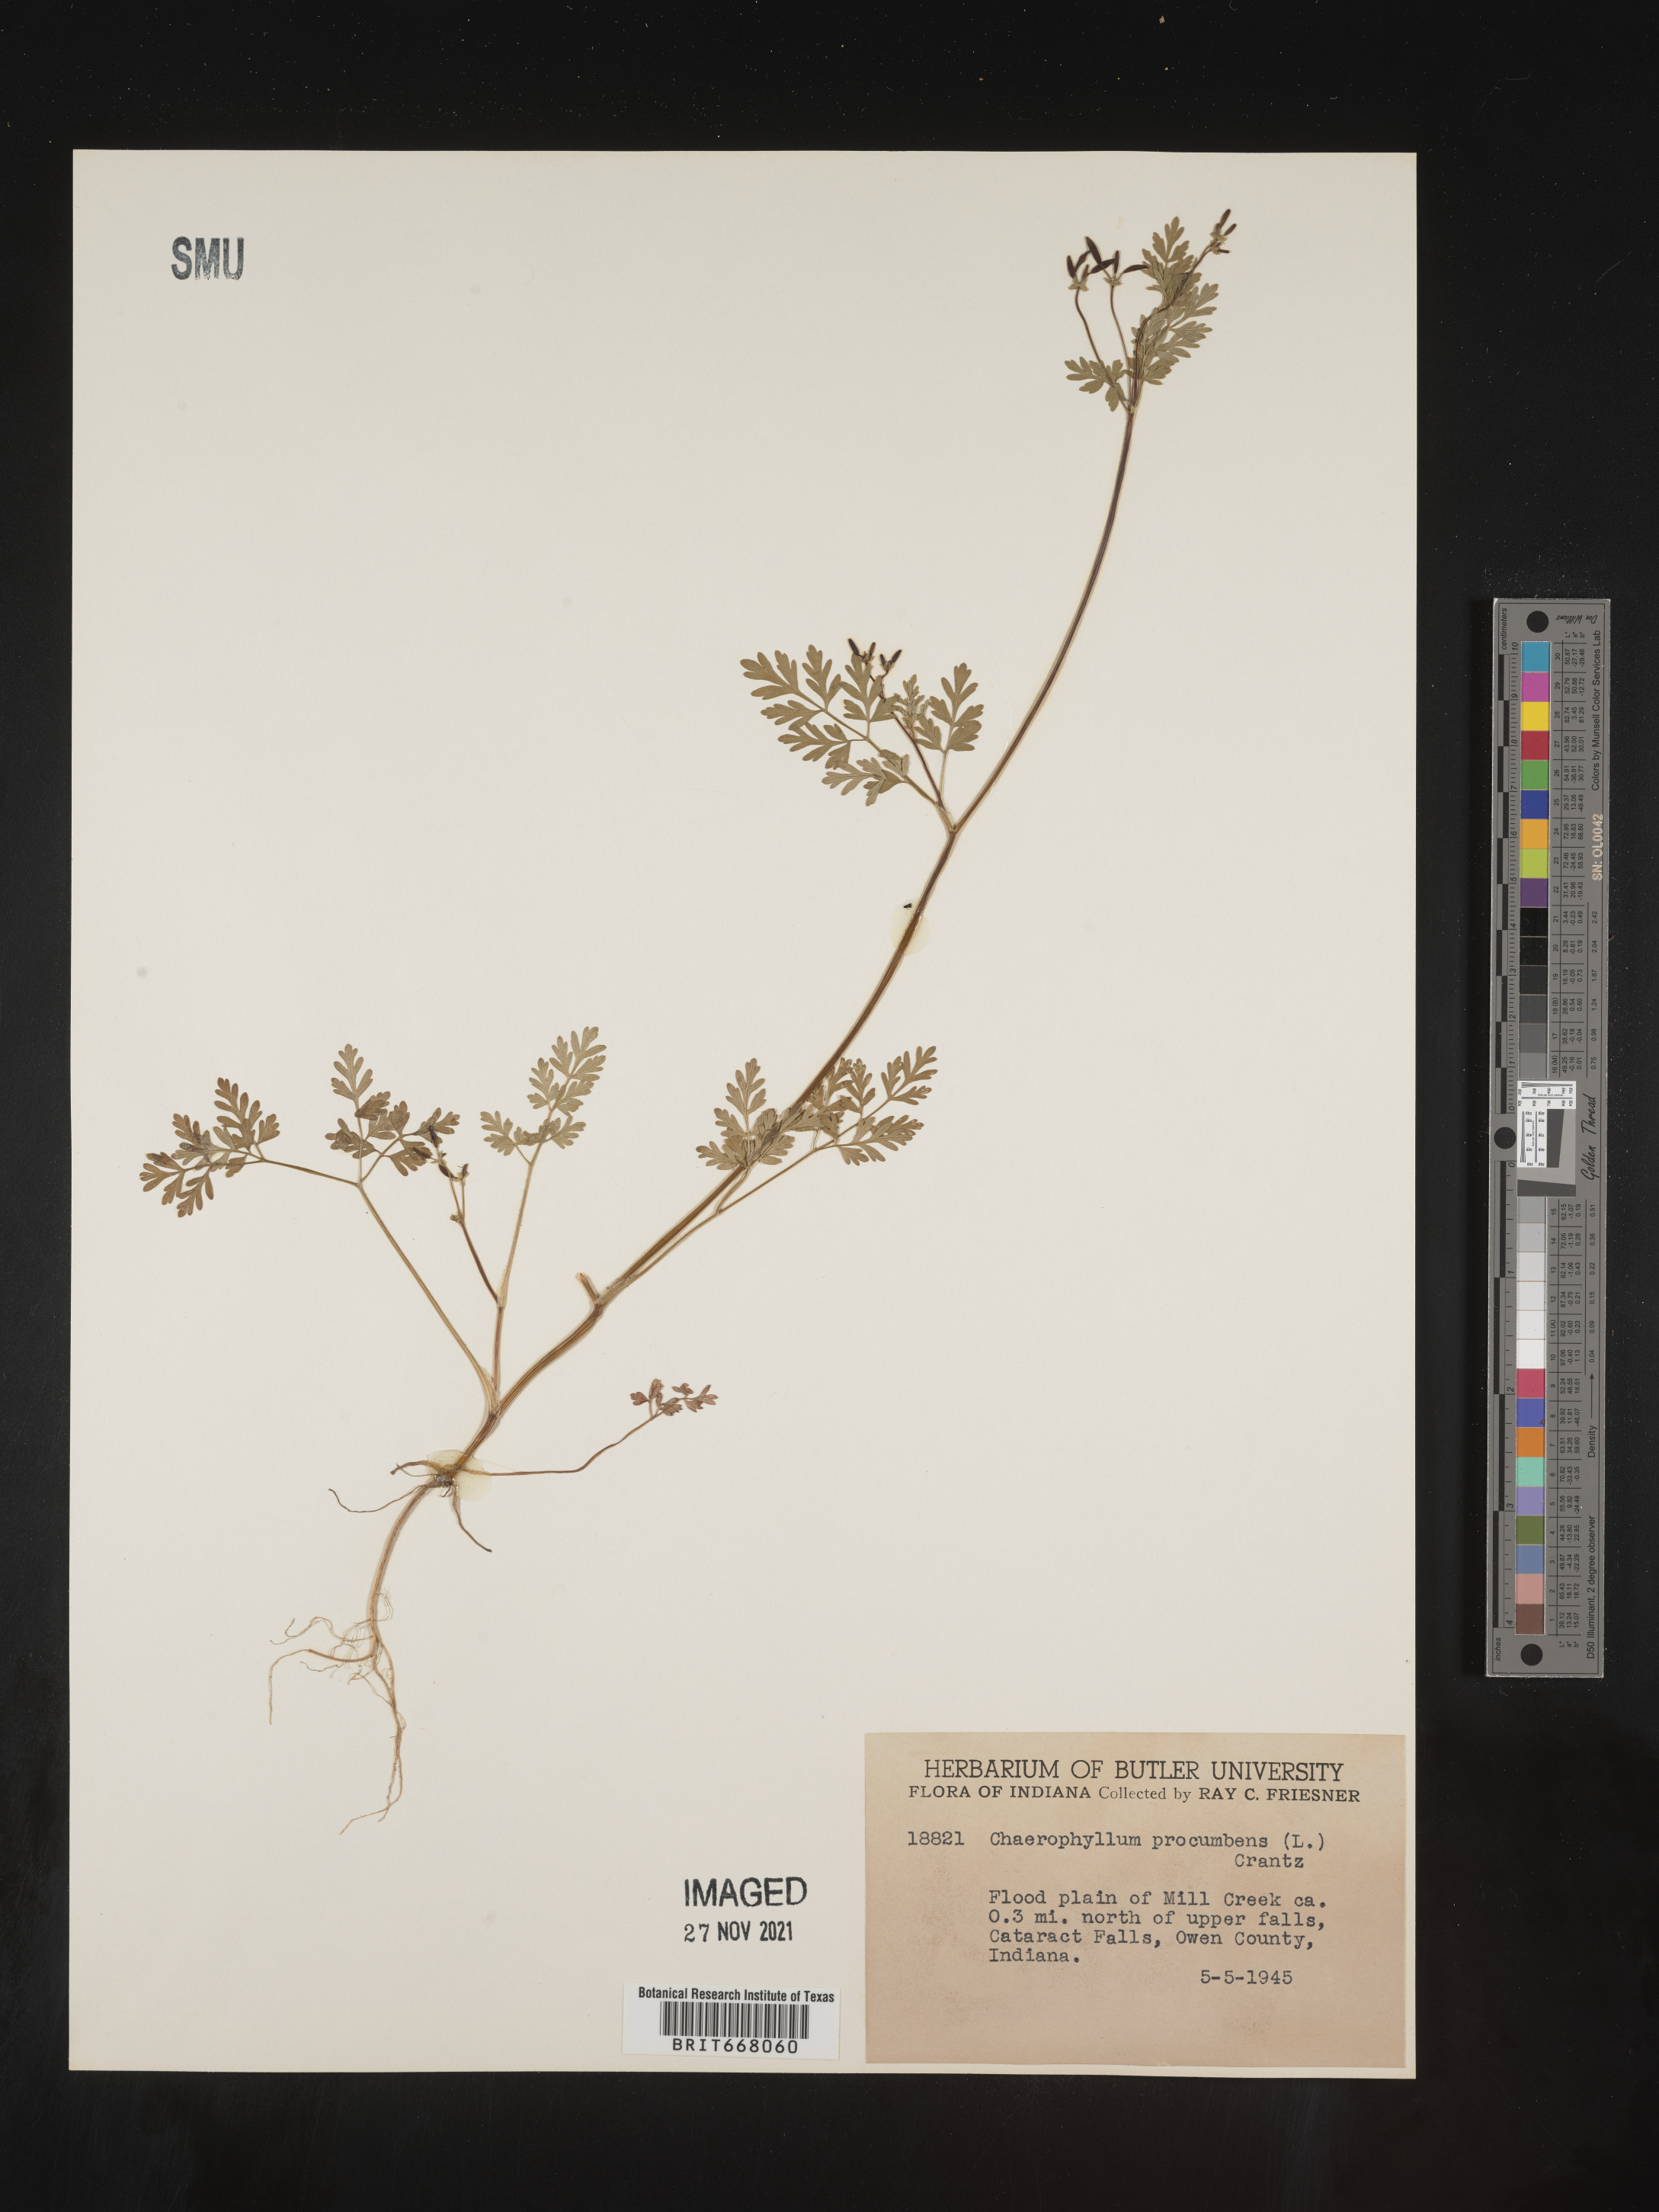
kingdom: Plantae
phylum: Tracheophyta
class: Magnoliopsida
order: Apiales
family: Apiaceae
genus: Chaerophyllum
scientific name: Chaerophyllum procumbens
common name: Spreading chervil
